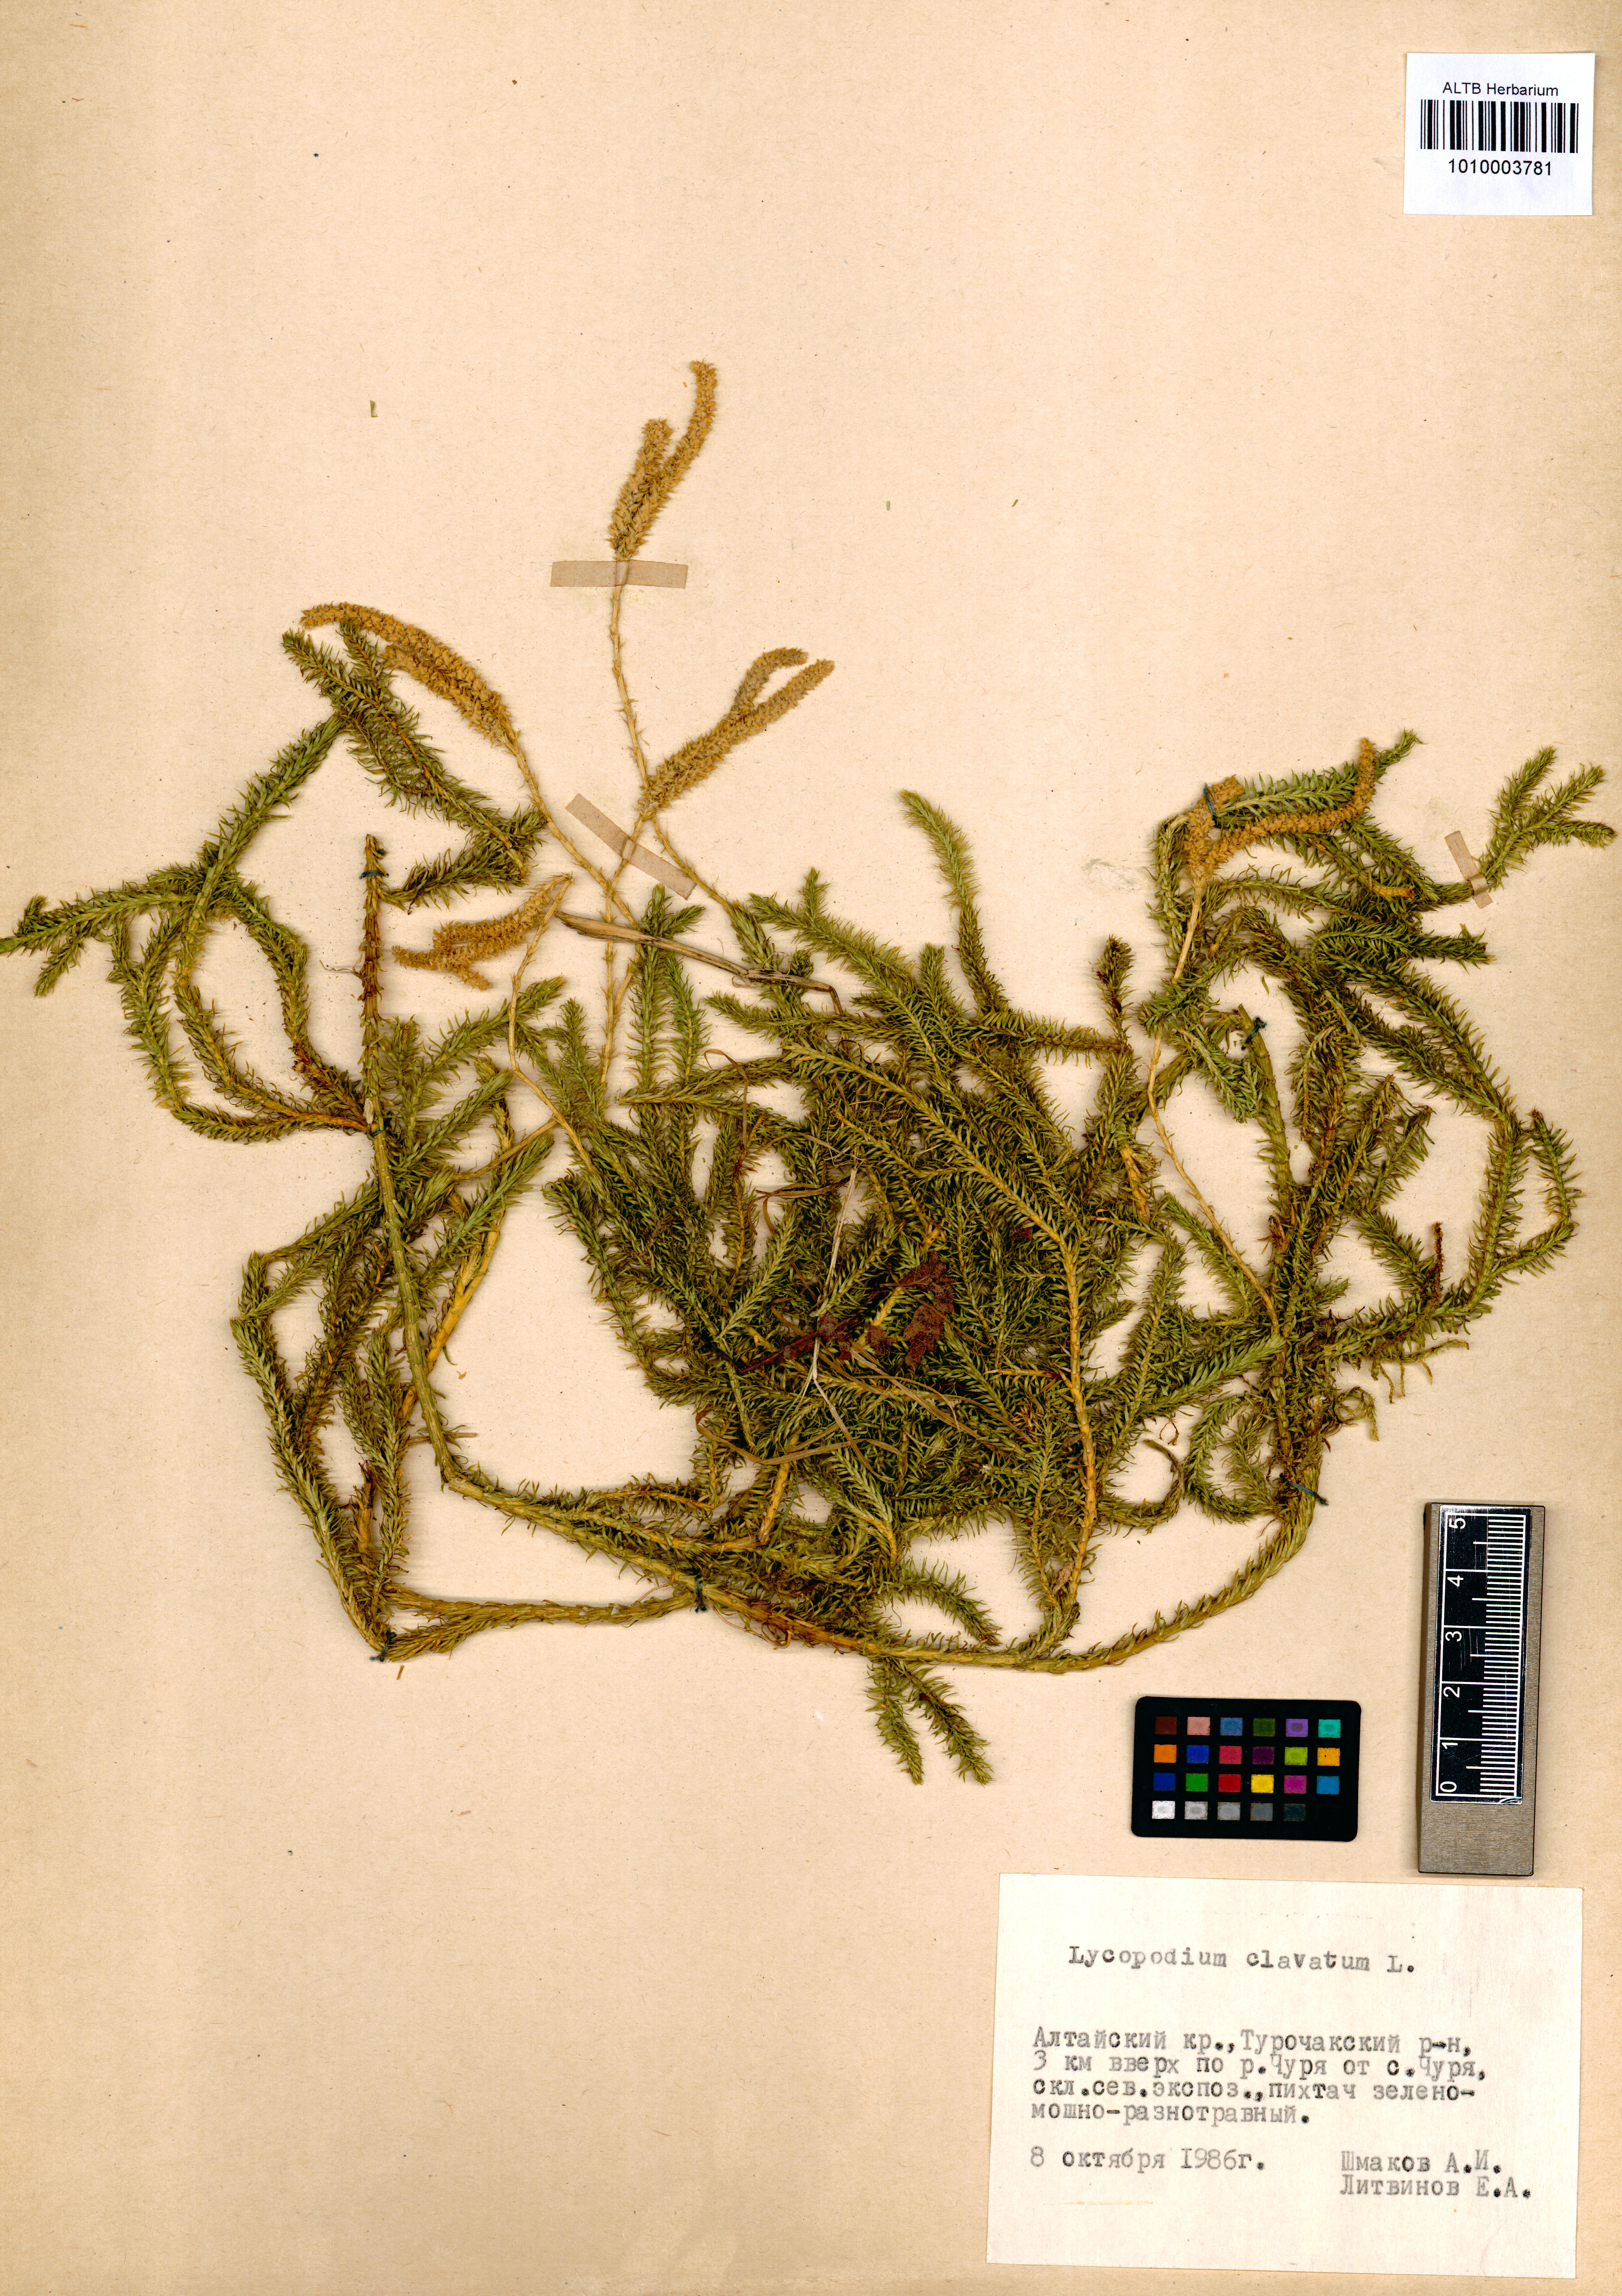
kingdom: Plantae
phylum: Tracheophyta
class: Lycopodiopsida
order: Lycopodiales
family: Lycopodiaceae
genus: Lycopodium
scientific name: Lycopodium clavatum
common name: Stag's-horn clubmoss
